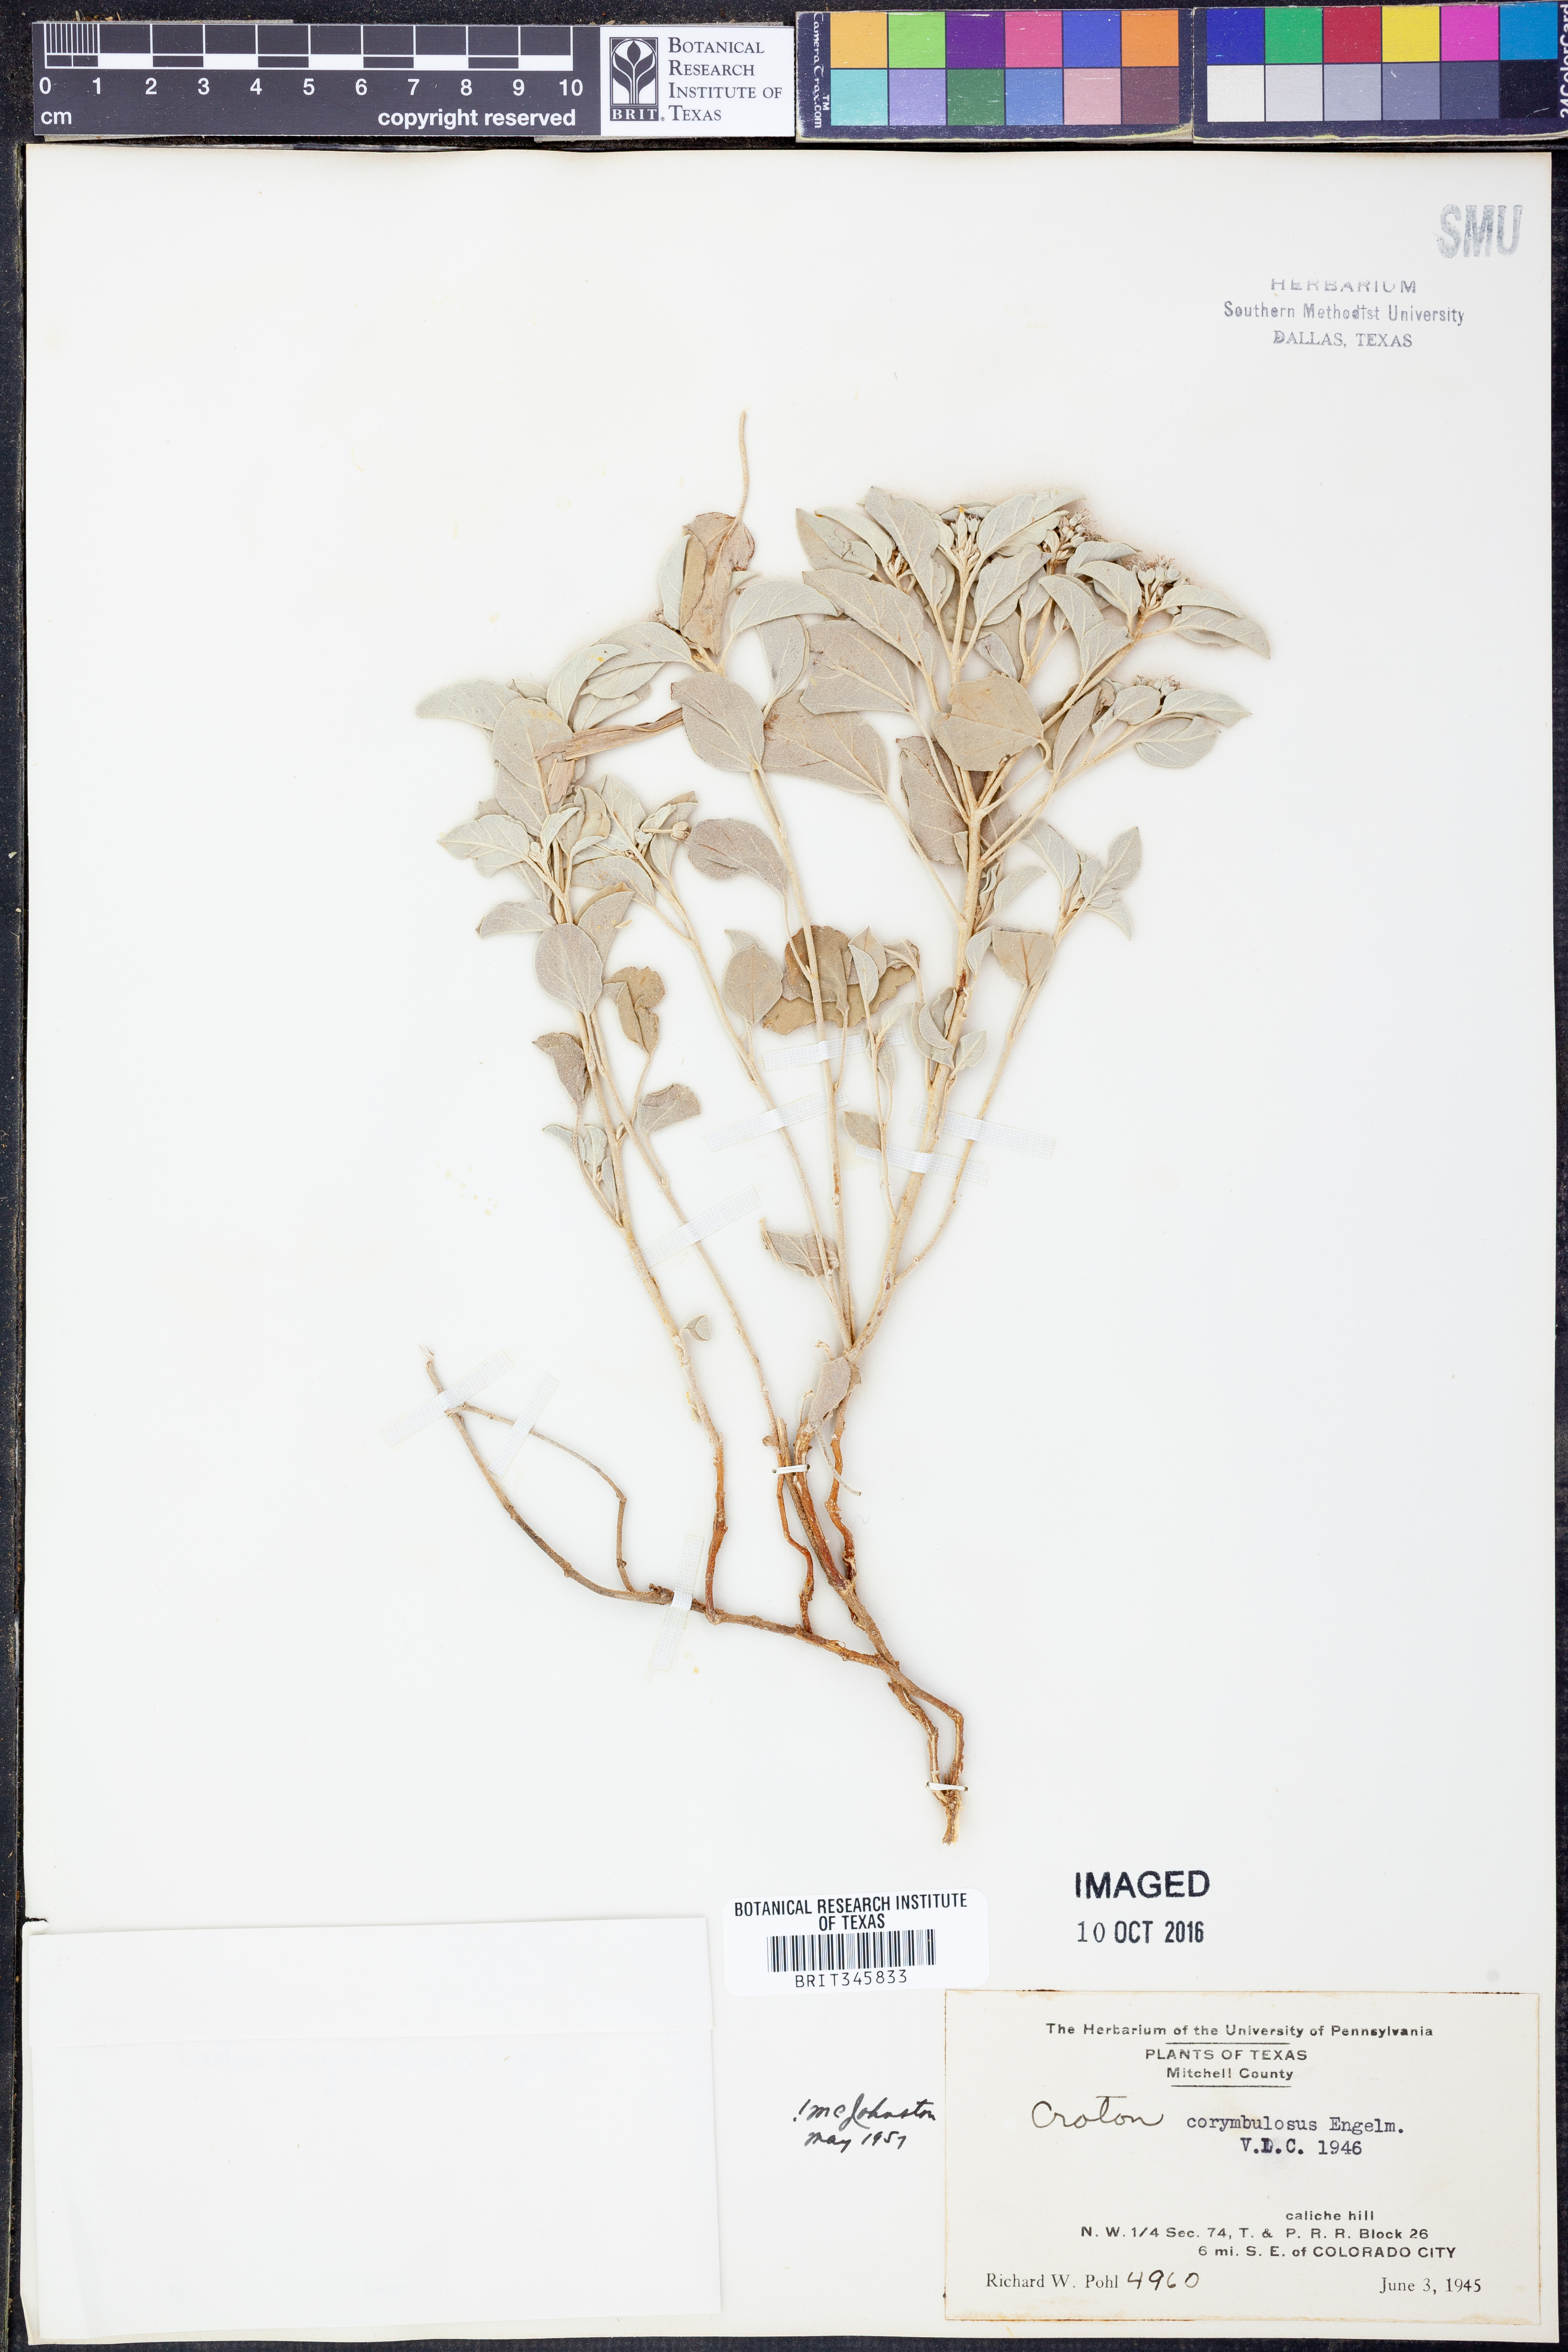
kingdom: Plantae
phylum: Tracheophyta
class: Magnoliopsida
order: Malpighiales
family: Euphorbiaceae
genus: Croton
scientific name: Croton pottsii
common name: Leatherweed
